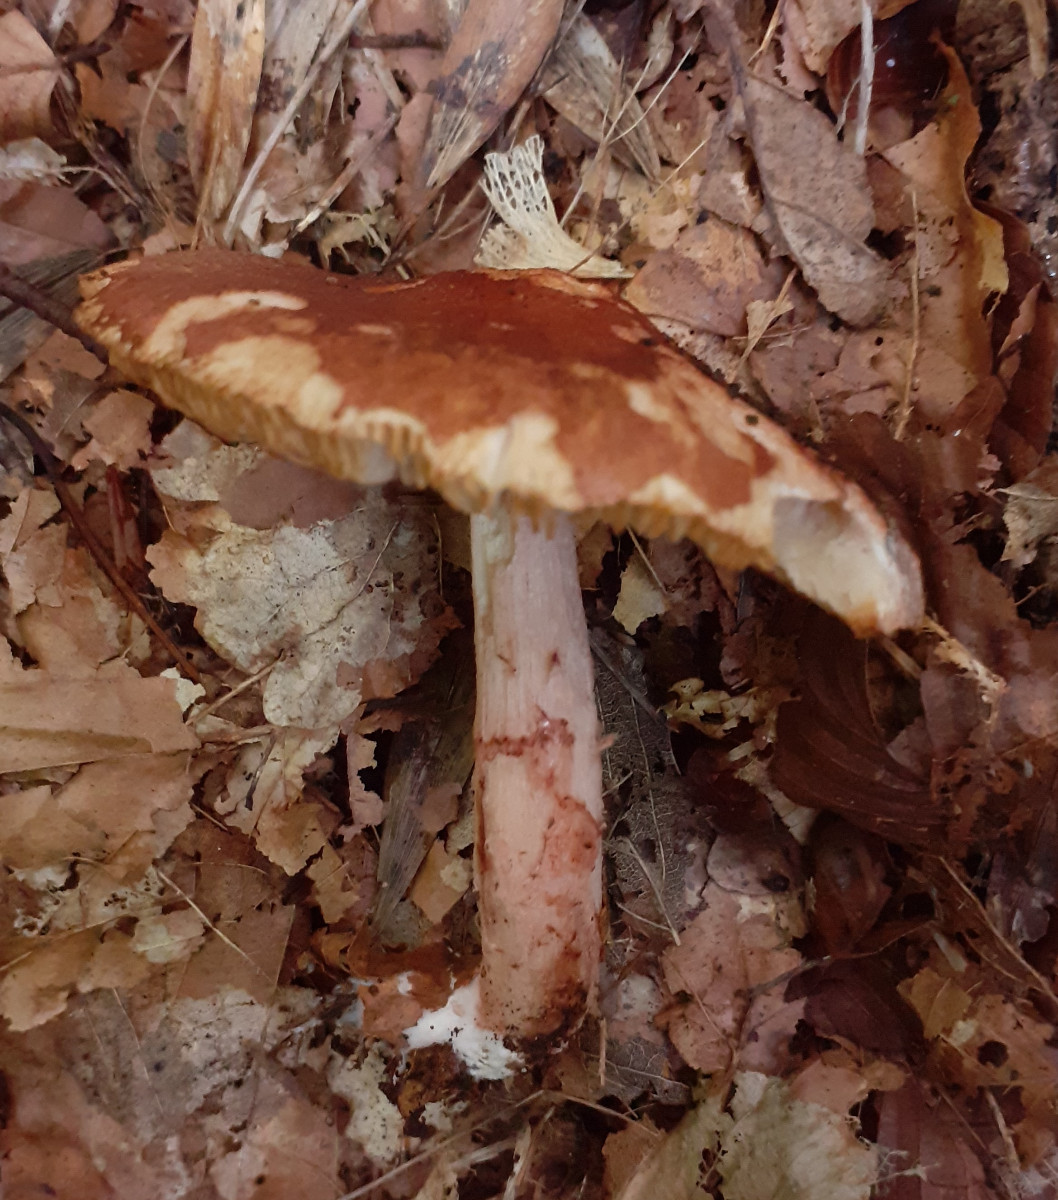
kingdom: Fungi
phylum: Basidiomycota
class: Agaricomycetes
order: Agaricales
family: Amanitaceae
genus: Limacella
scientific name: Limacella delicata
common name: rosabrun snekkehat
